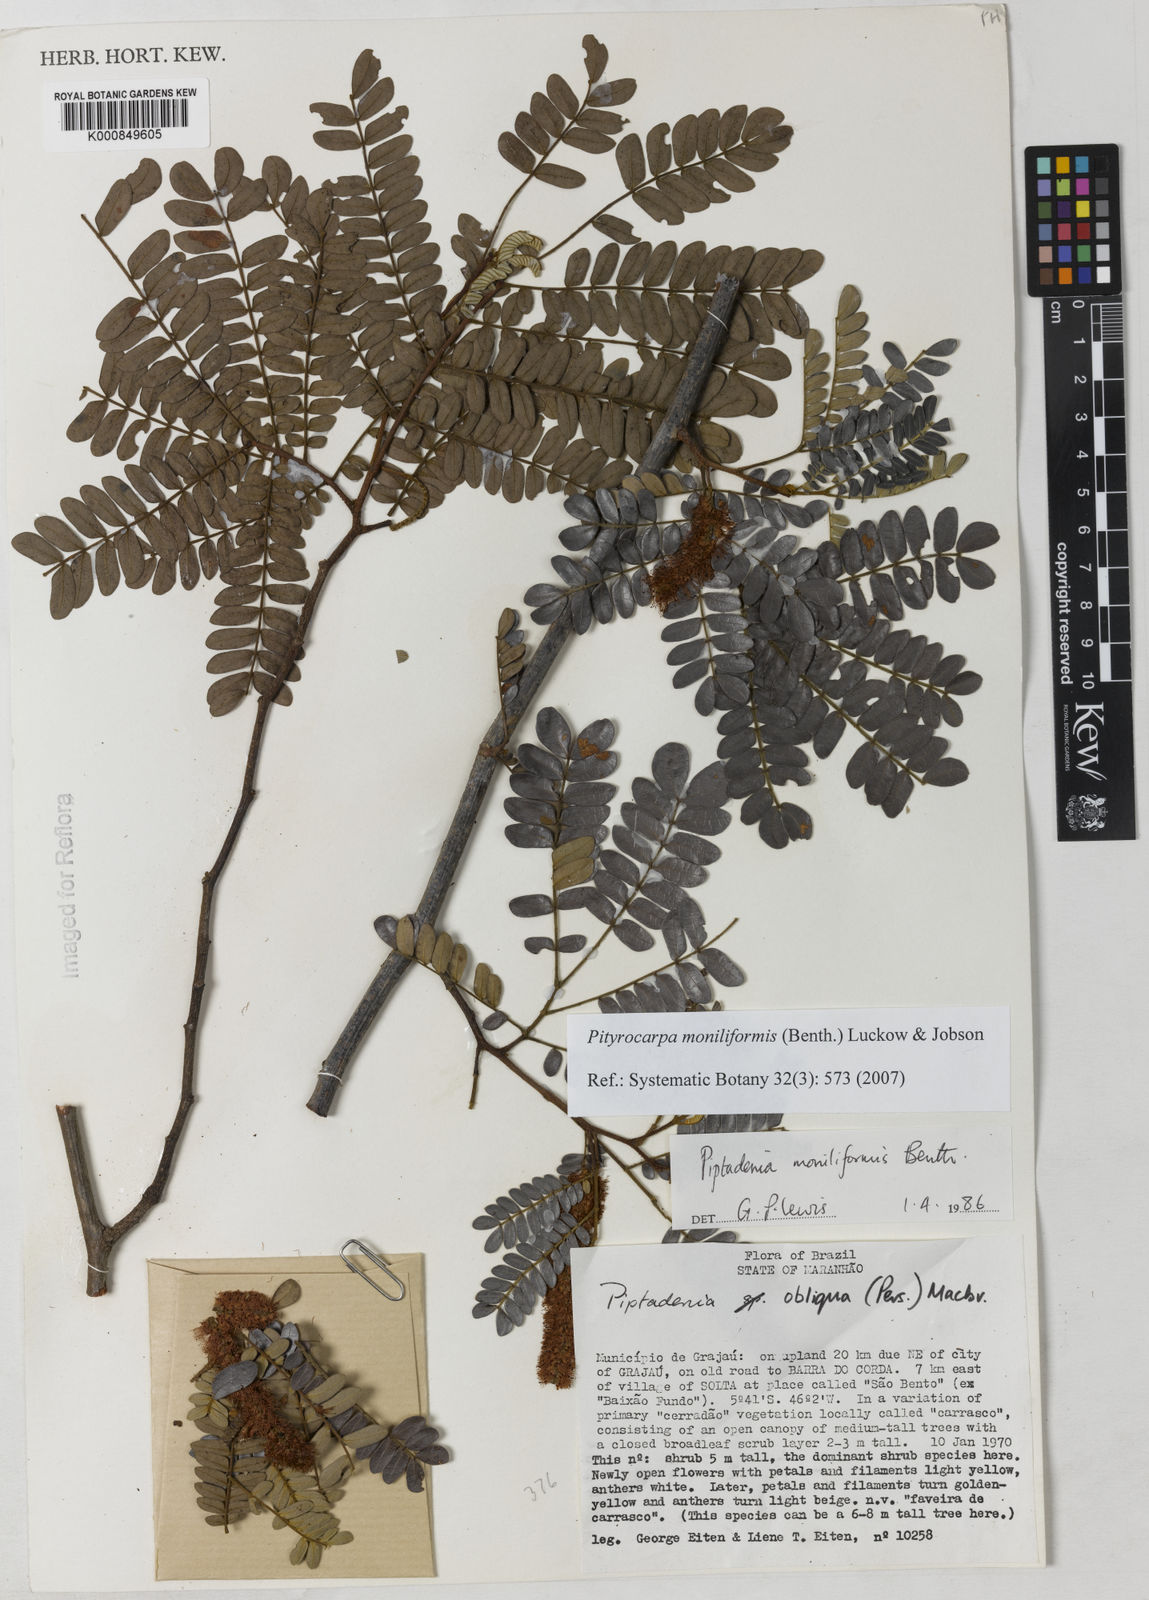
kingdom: Plantae
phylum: Tracheophyta
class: Magnoliopsida
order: Fabales
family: Fabaceae
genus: Pityrocarpa
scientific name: Pityrocarpa moniliformis
